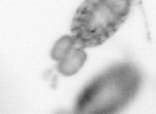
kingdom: Animalia
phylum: Arthropoda
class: Copepoda
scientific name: Copepoda
